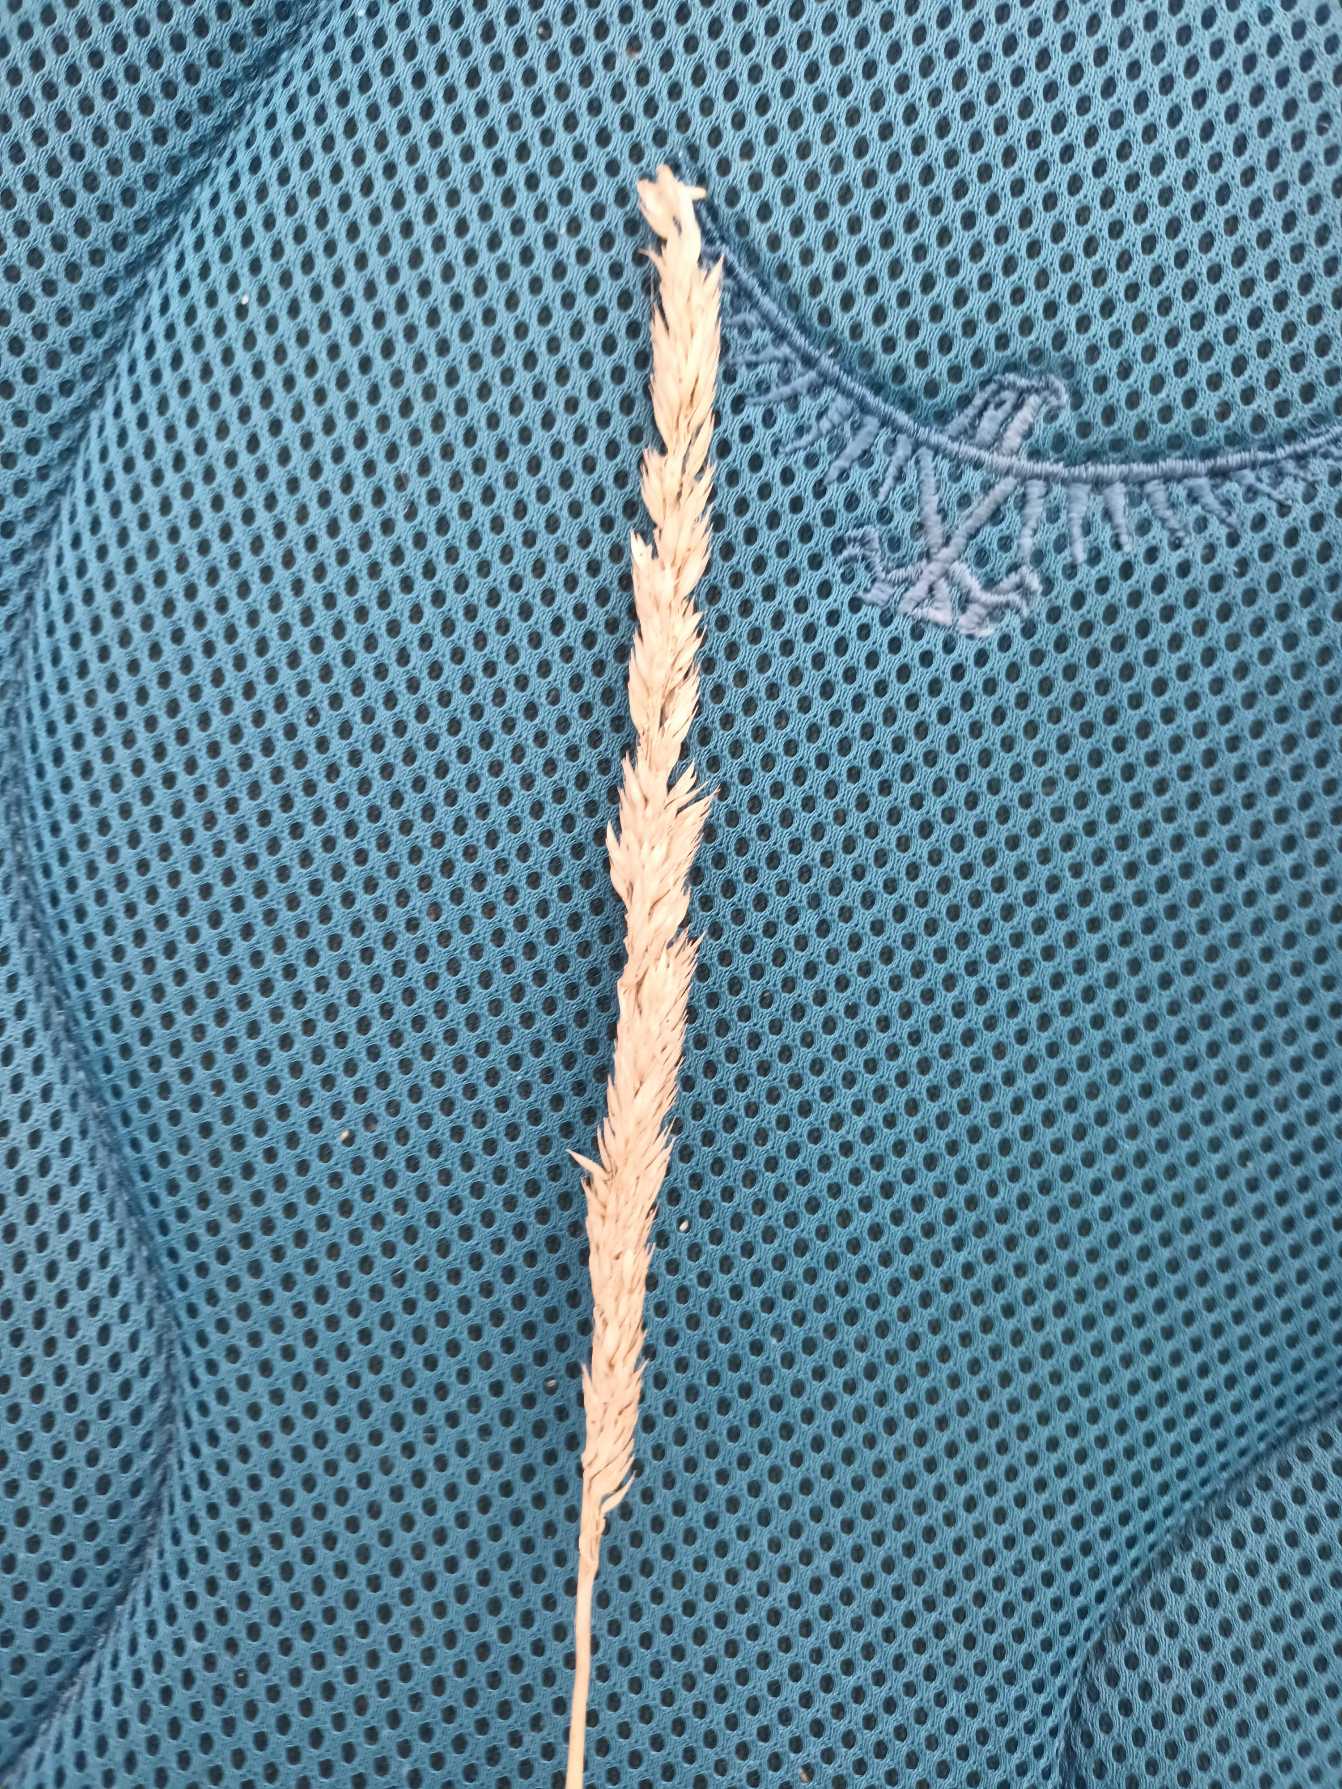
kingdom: Plantae
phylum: Tracheophyta
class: Liliopsida
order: Poales
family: Poaceae
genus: Phalaris
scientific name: Phalaris arundinacea
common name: Rørgræs
